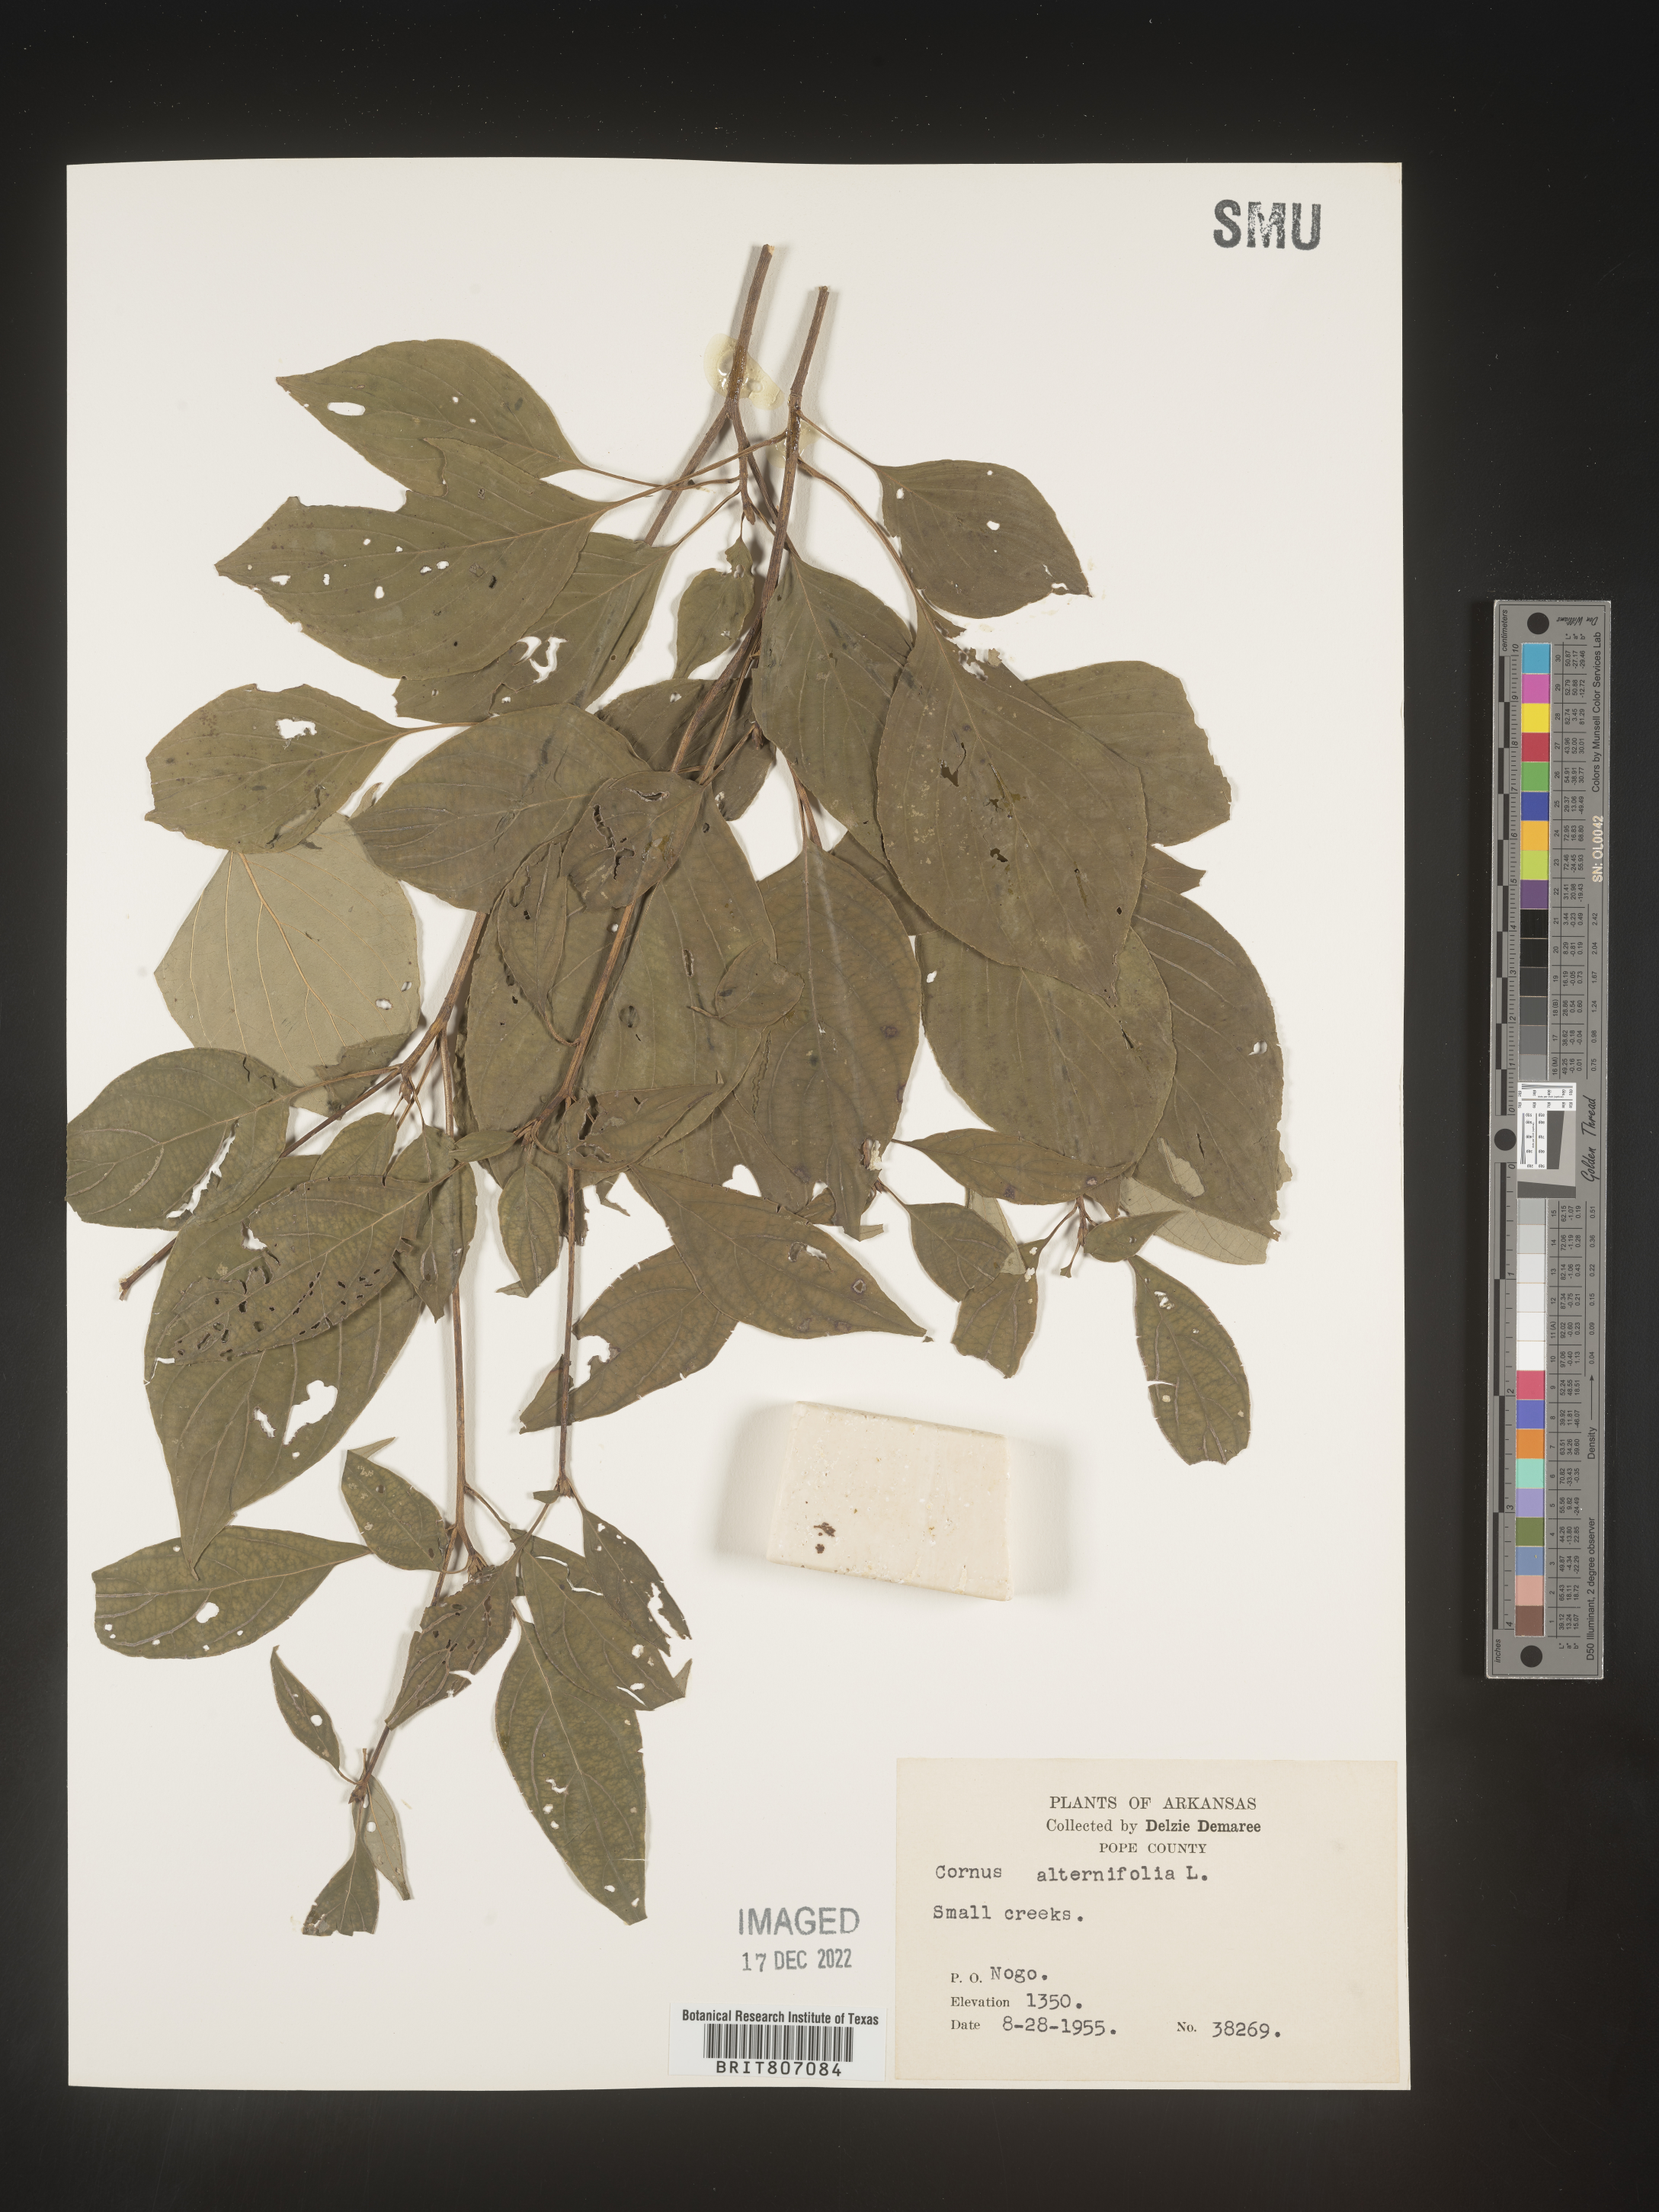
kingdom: Plantae
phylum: Tracheophyta
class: Magnoliopsida
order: Cornales
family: Cornaceae
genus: Cornus
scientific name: Cornus alternifolia
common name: Pagoda dogwood
